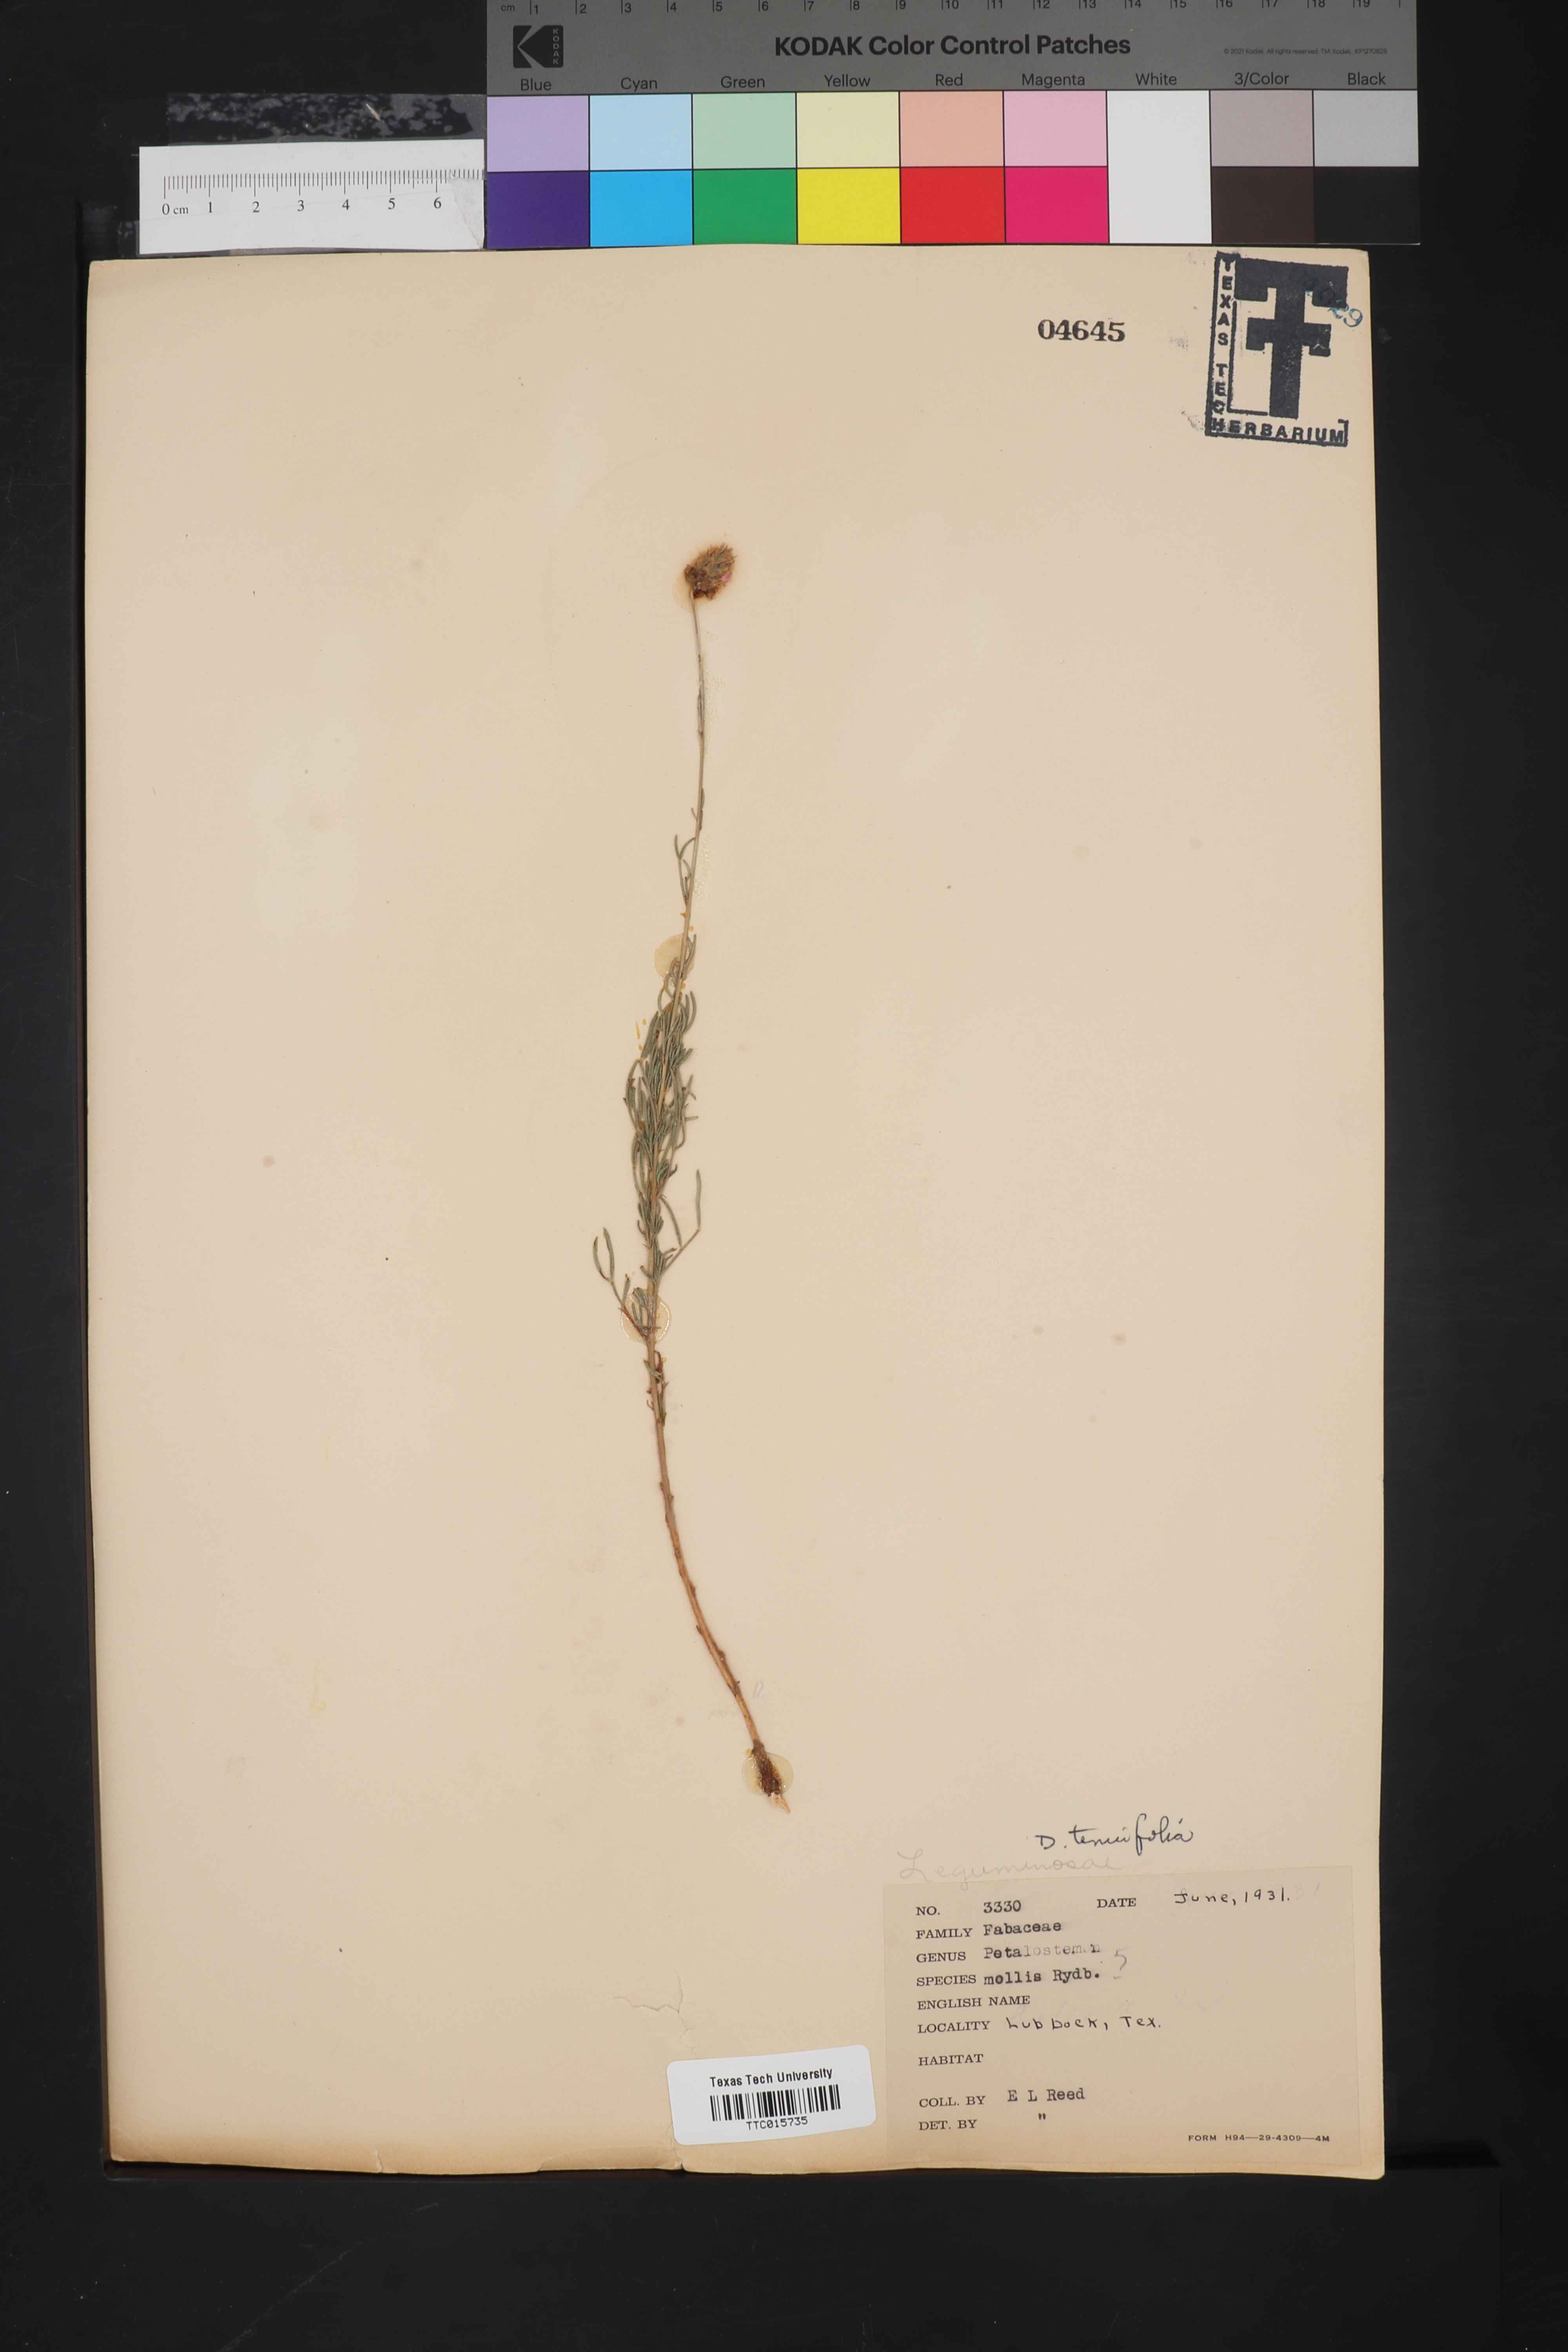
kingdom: Plantae
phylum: Tracheophyta
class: Magnoliopsida
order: Fabales
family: Fabaceae
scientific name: Fabaceae
